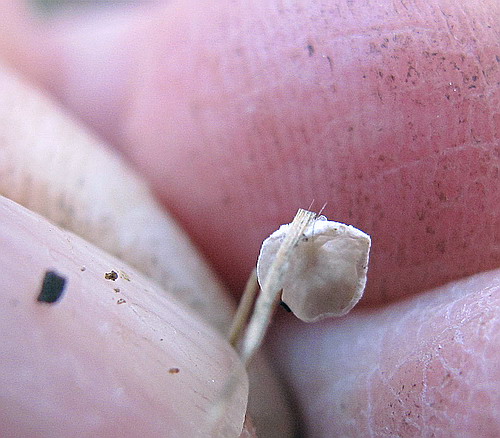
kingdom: Fungi
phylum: Basidiomycota
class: Agaricomycetes
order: Agaricales
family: Hygrophoraceae
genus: Arrhenia
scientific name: Arrhenia retiruga
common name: lille fontænehat
